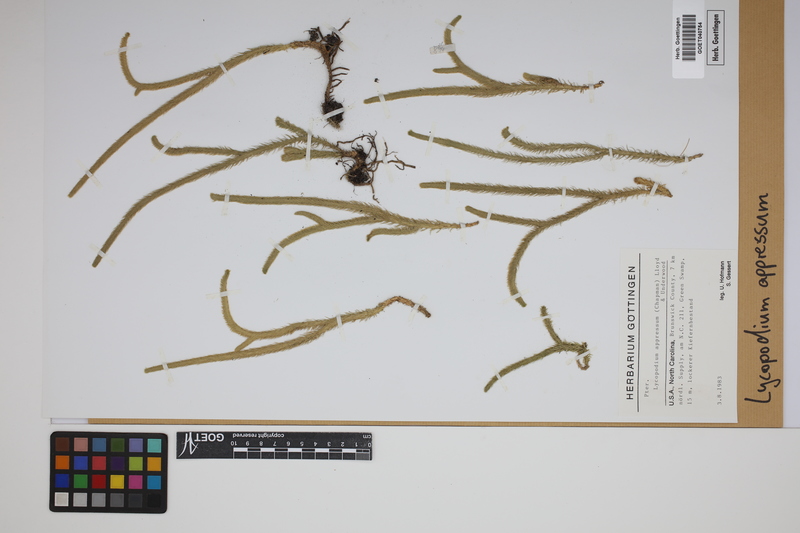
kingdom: Plantae
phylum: Tracheophyta
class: Lycopodiopsida
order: Lycopodiales
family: Lycopodiaceae
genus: Lycopodiella
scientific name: Lycopodiella appressa
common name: Appressed bog clubmoss
